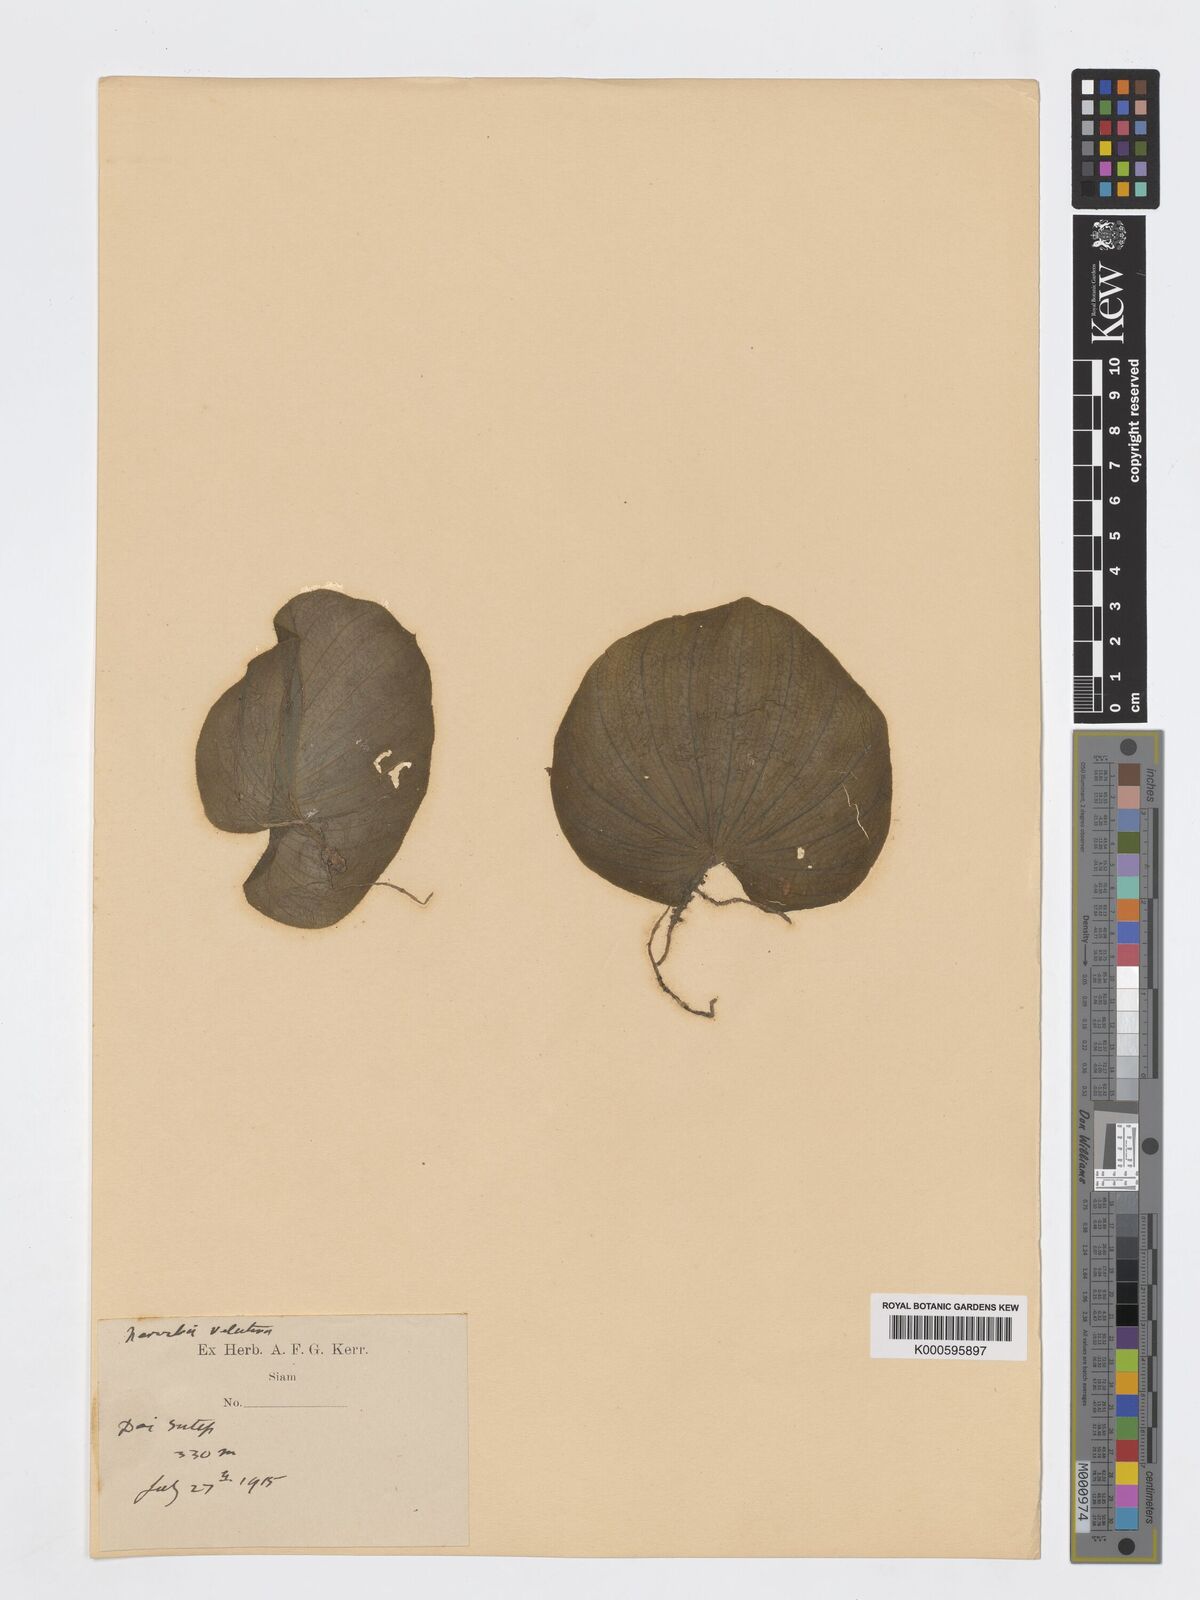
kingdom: Plantae
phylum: Tracheophyta
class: Liliopsida
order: Asparagales
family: Orchidaceae
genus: Nervilia
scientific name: Nervilia plicata
